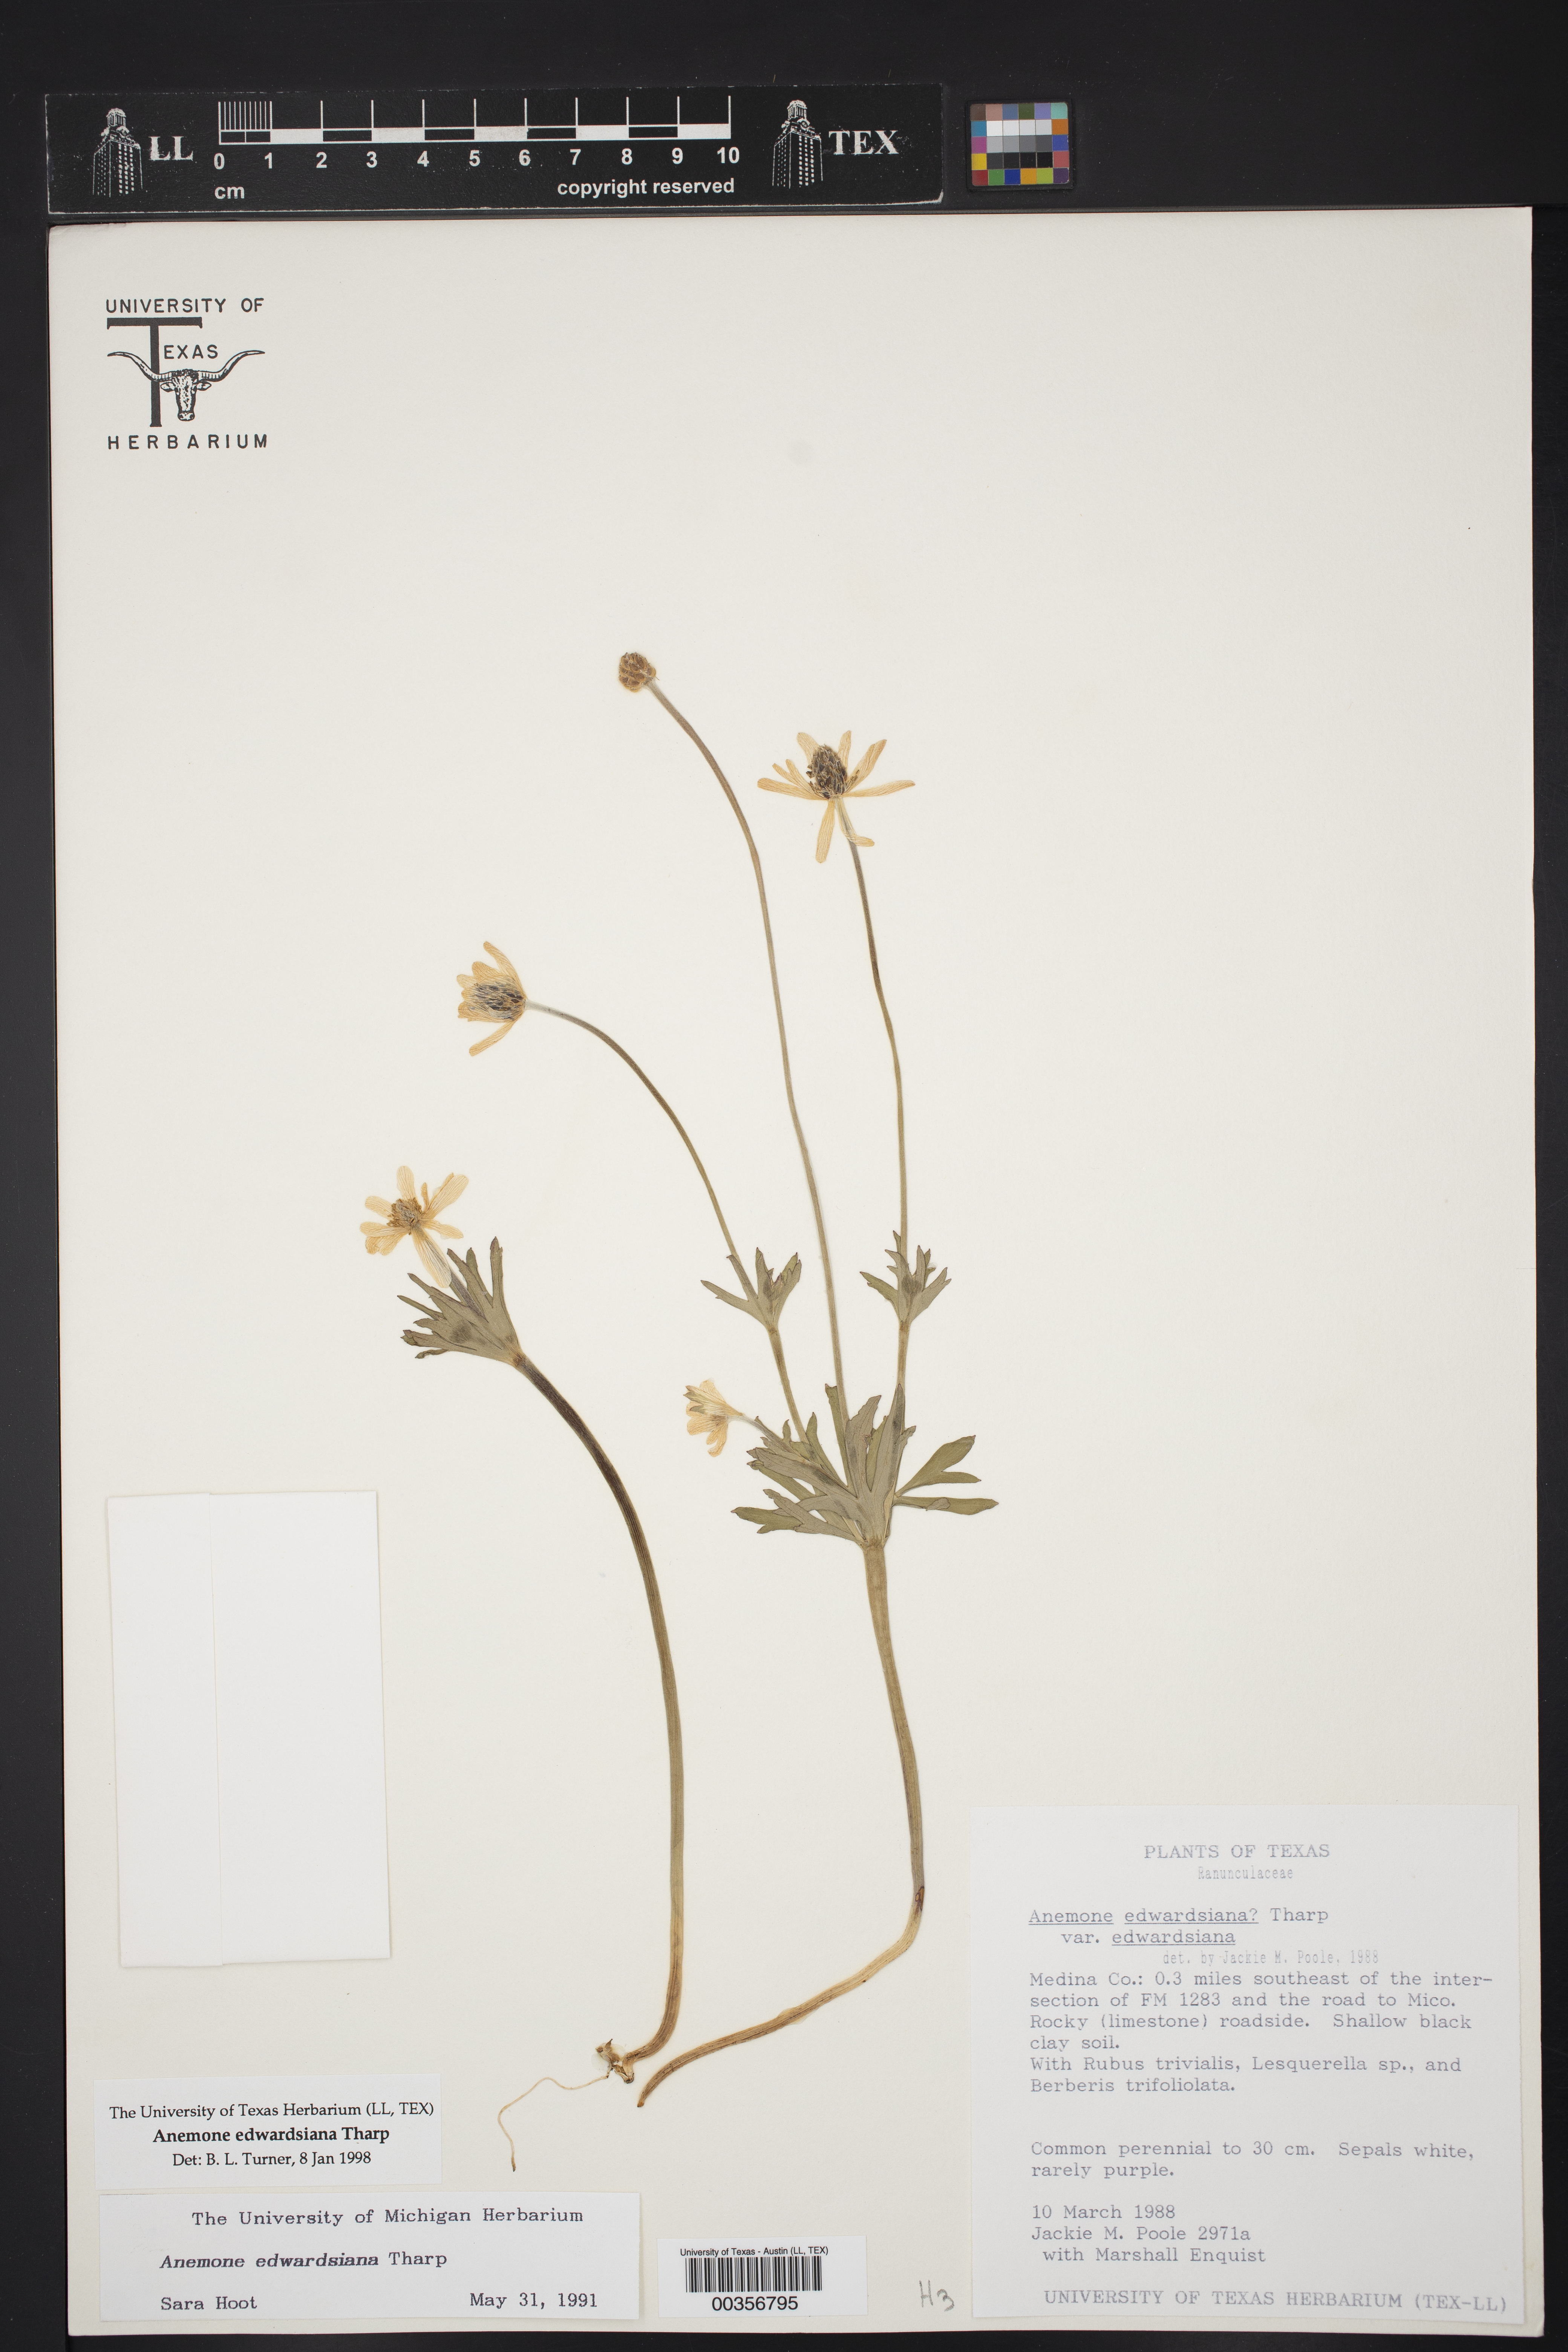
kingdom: Plantae
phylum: Tracheophyta
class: Magnoliopsida
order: Ranunculales
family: Ranunculaceae
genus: Anemone
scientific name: Anemone edwardsiana
